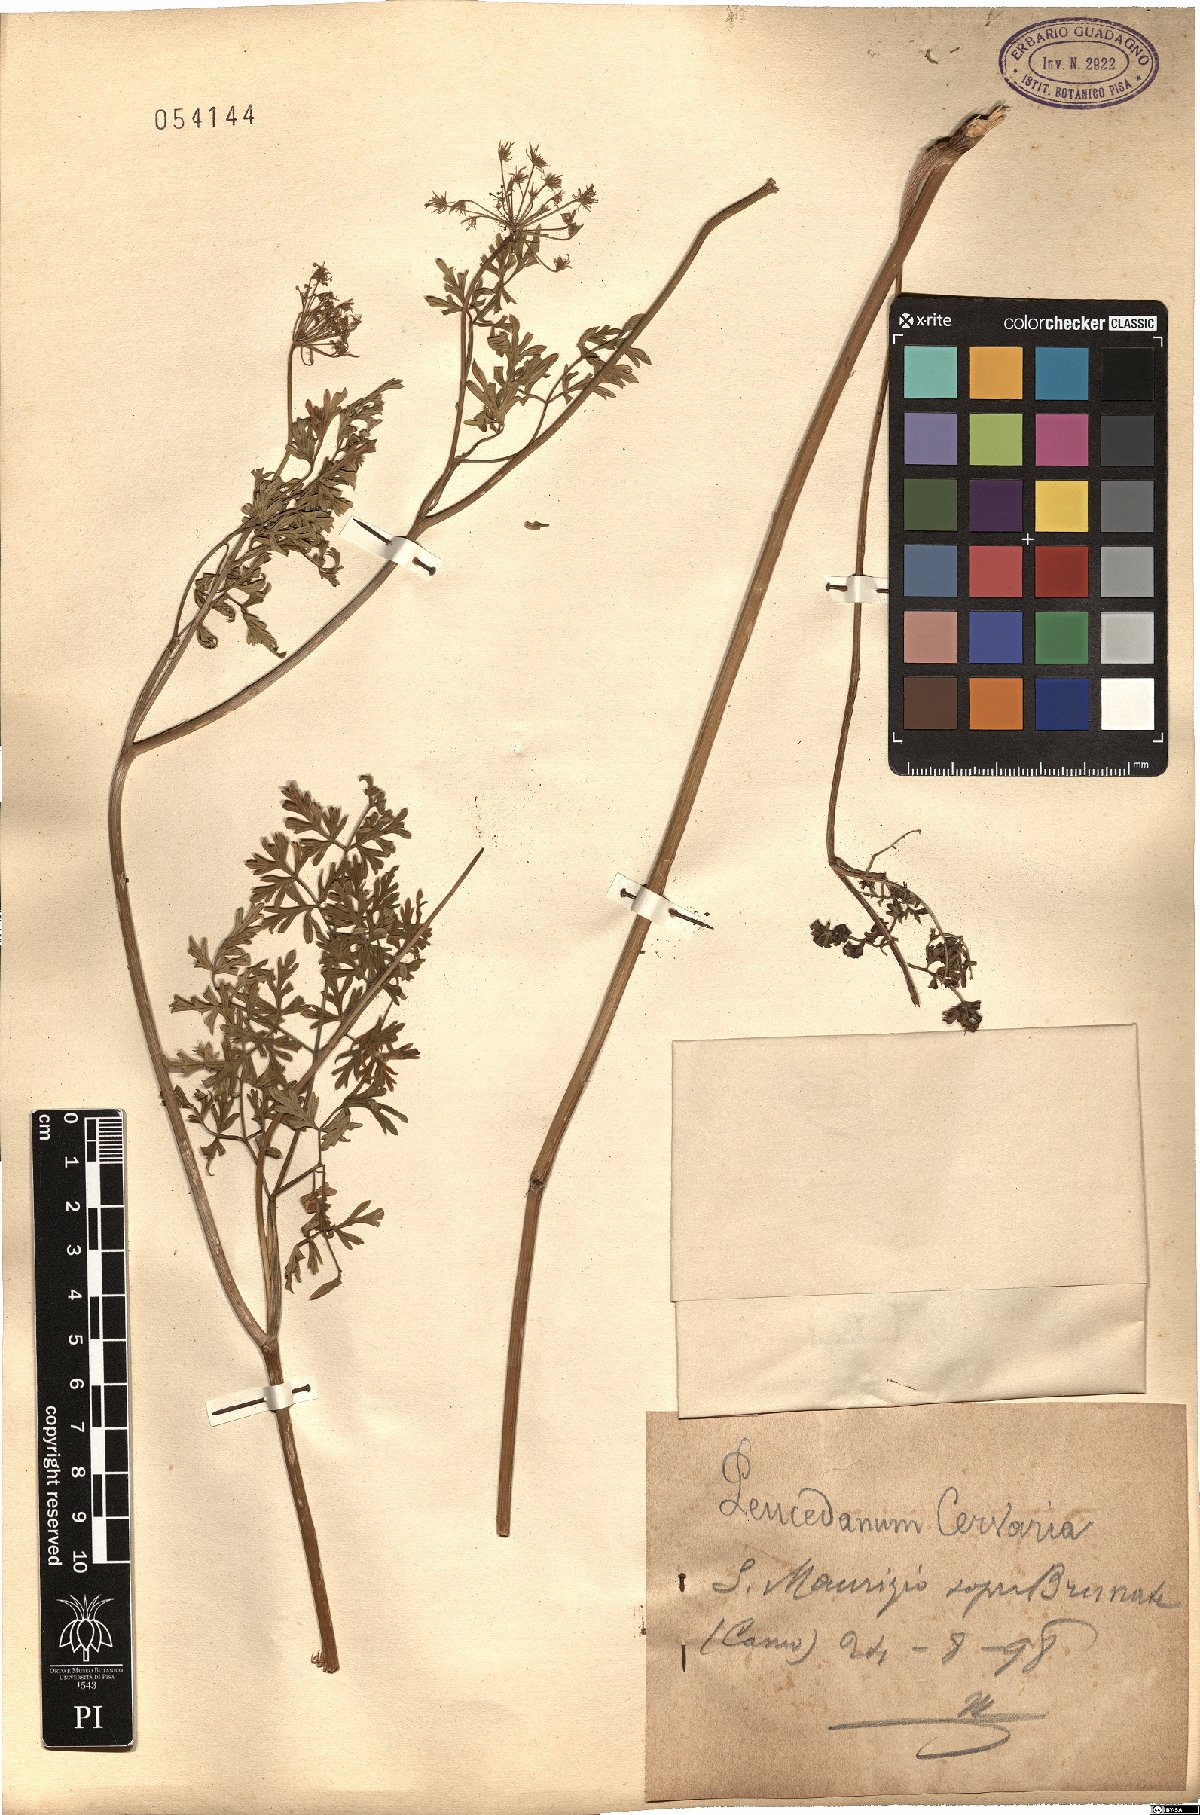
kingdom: Plantae
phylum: Tracheophyta
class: Magnoliopsida
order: Apiales
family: Apiaceae
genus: Cervaria
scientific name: Cervaria rivini
